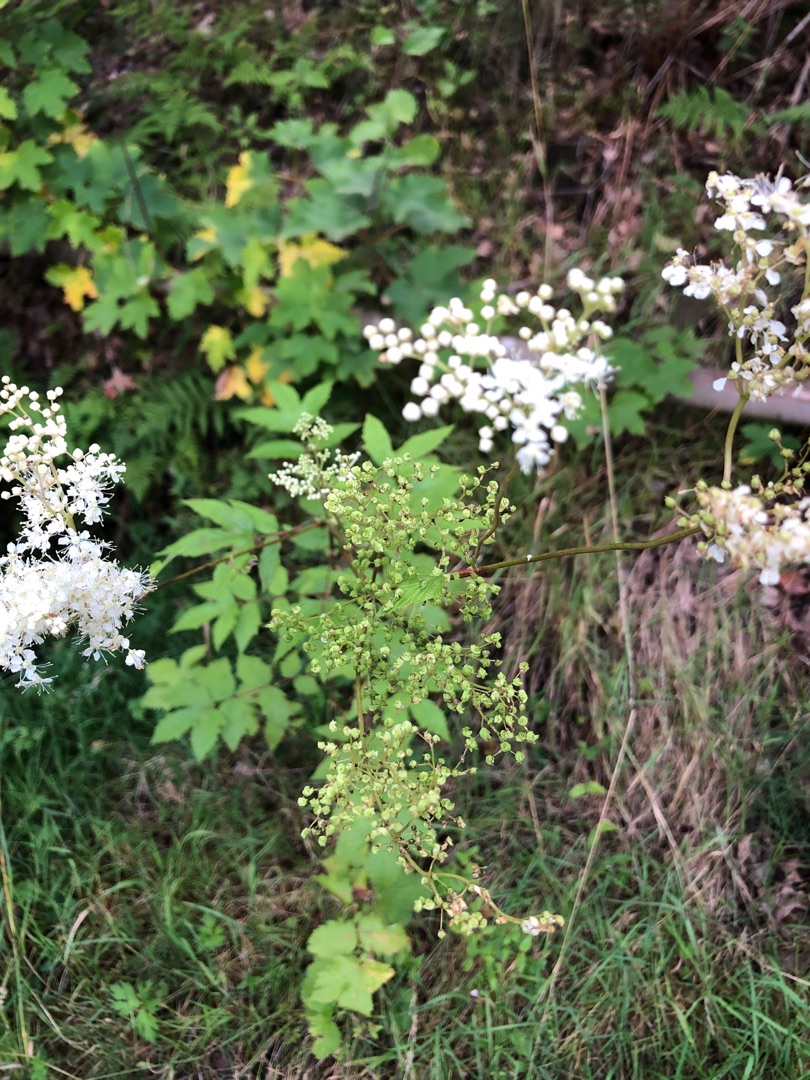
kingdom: Plantae
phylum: Tracheophyta
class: Magnoliopsida
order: Rosales
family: Rosaceae
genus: Filipendula
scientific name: Filipendula ulmaria
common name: Almindelig mjødurt
